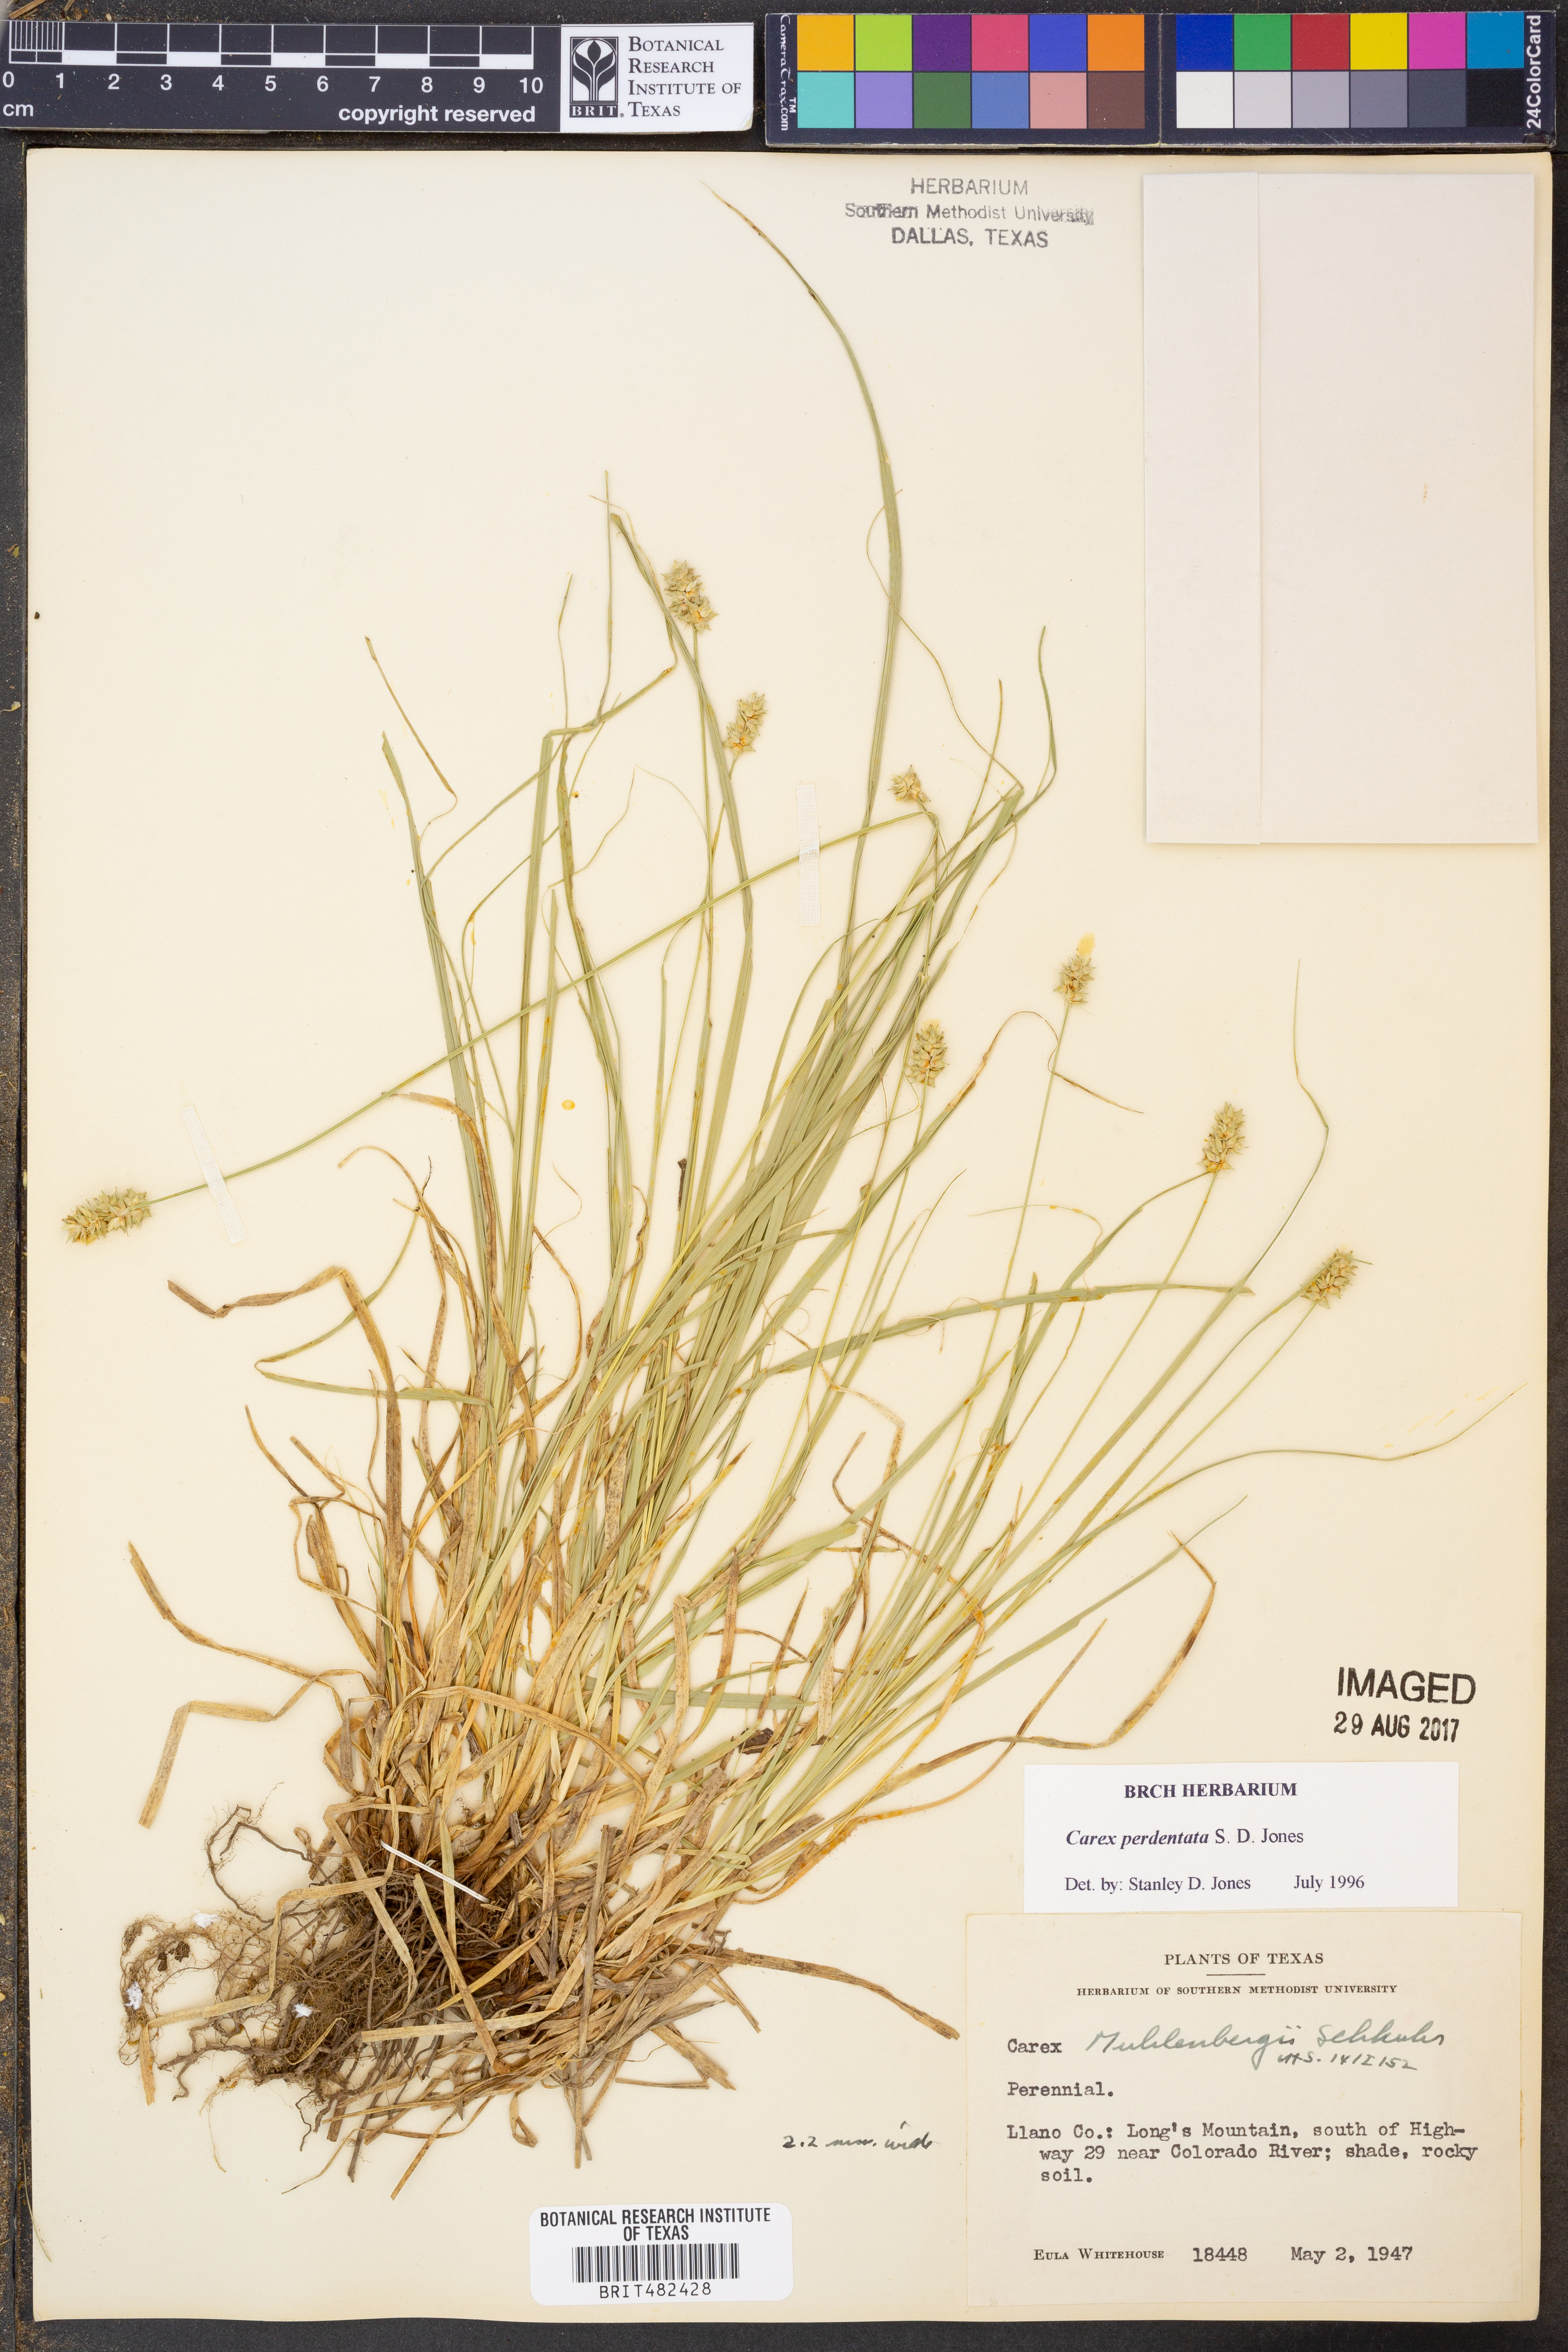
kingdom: Plantae
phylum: Tracheophyta
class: Liliopsida
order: Poales
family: Cyperaceae
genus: Carex
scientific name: Carex perdentata
